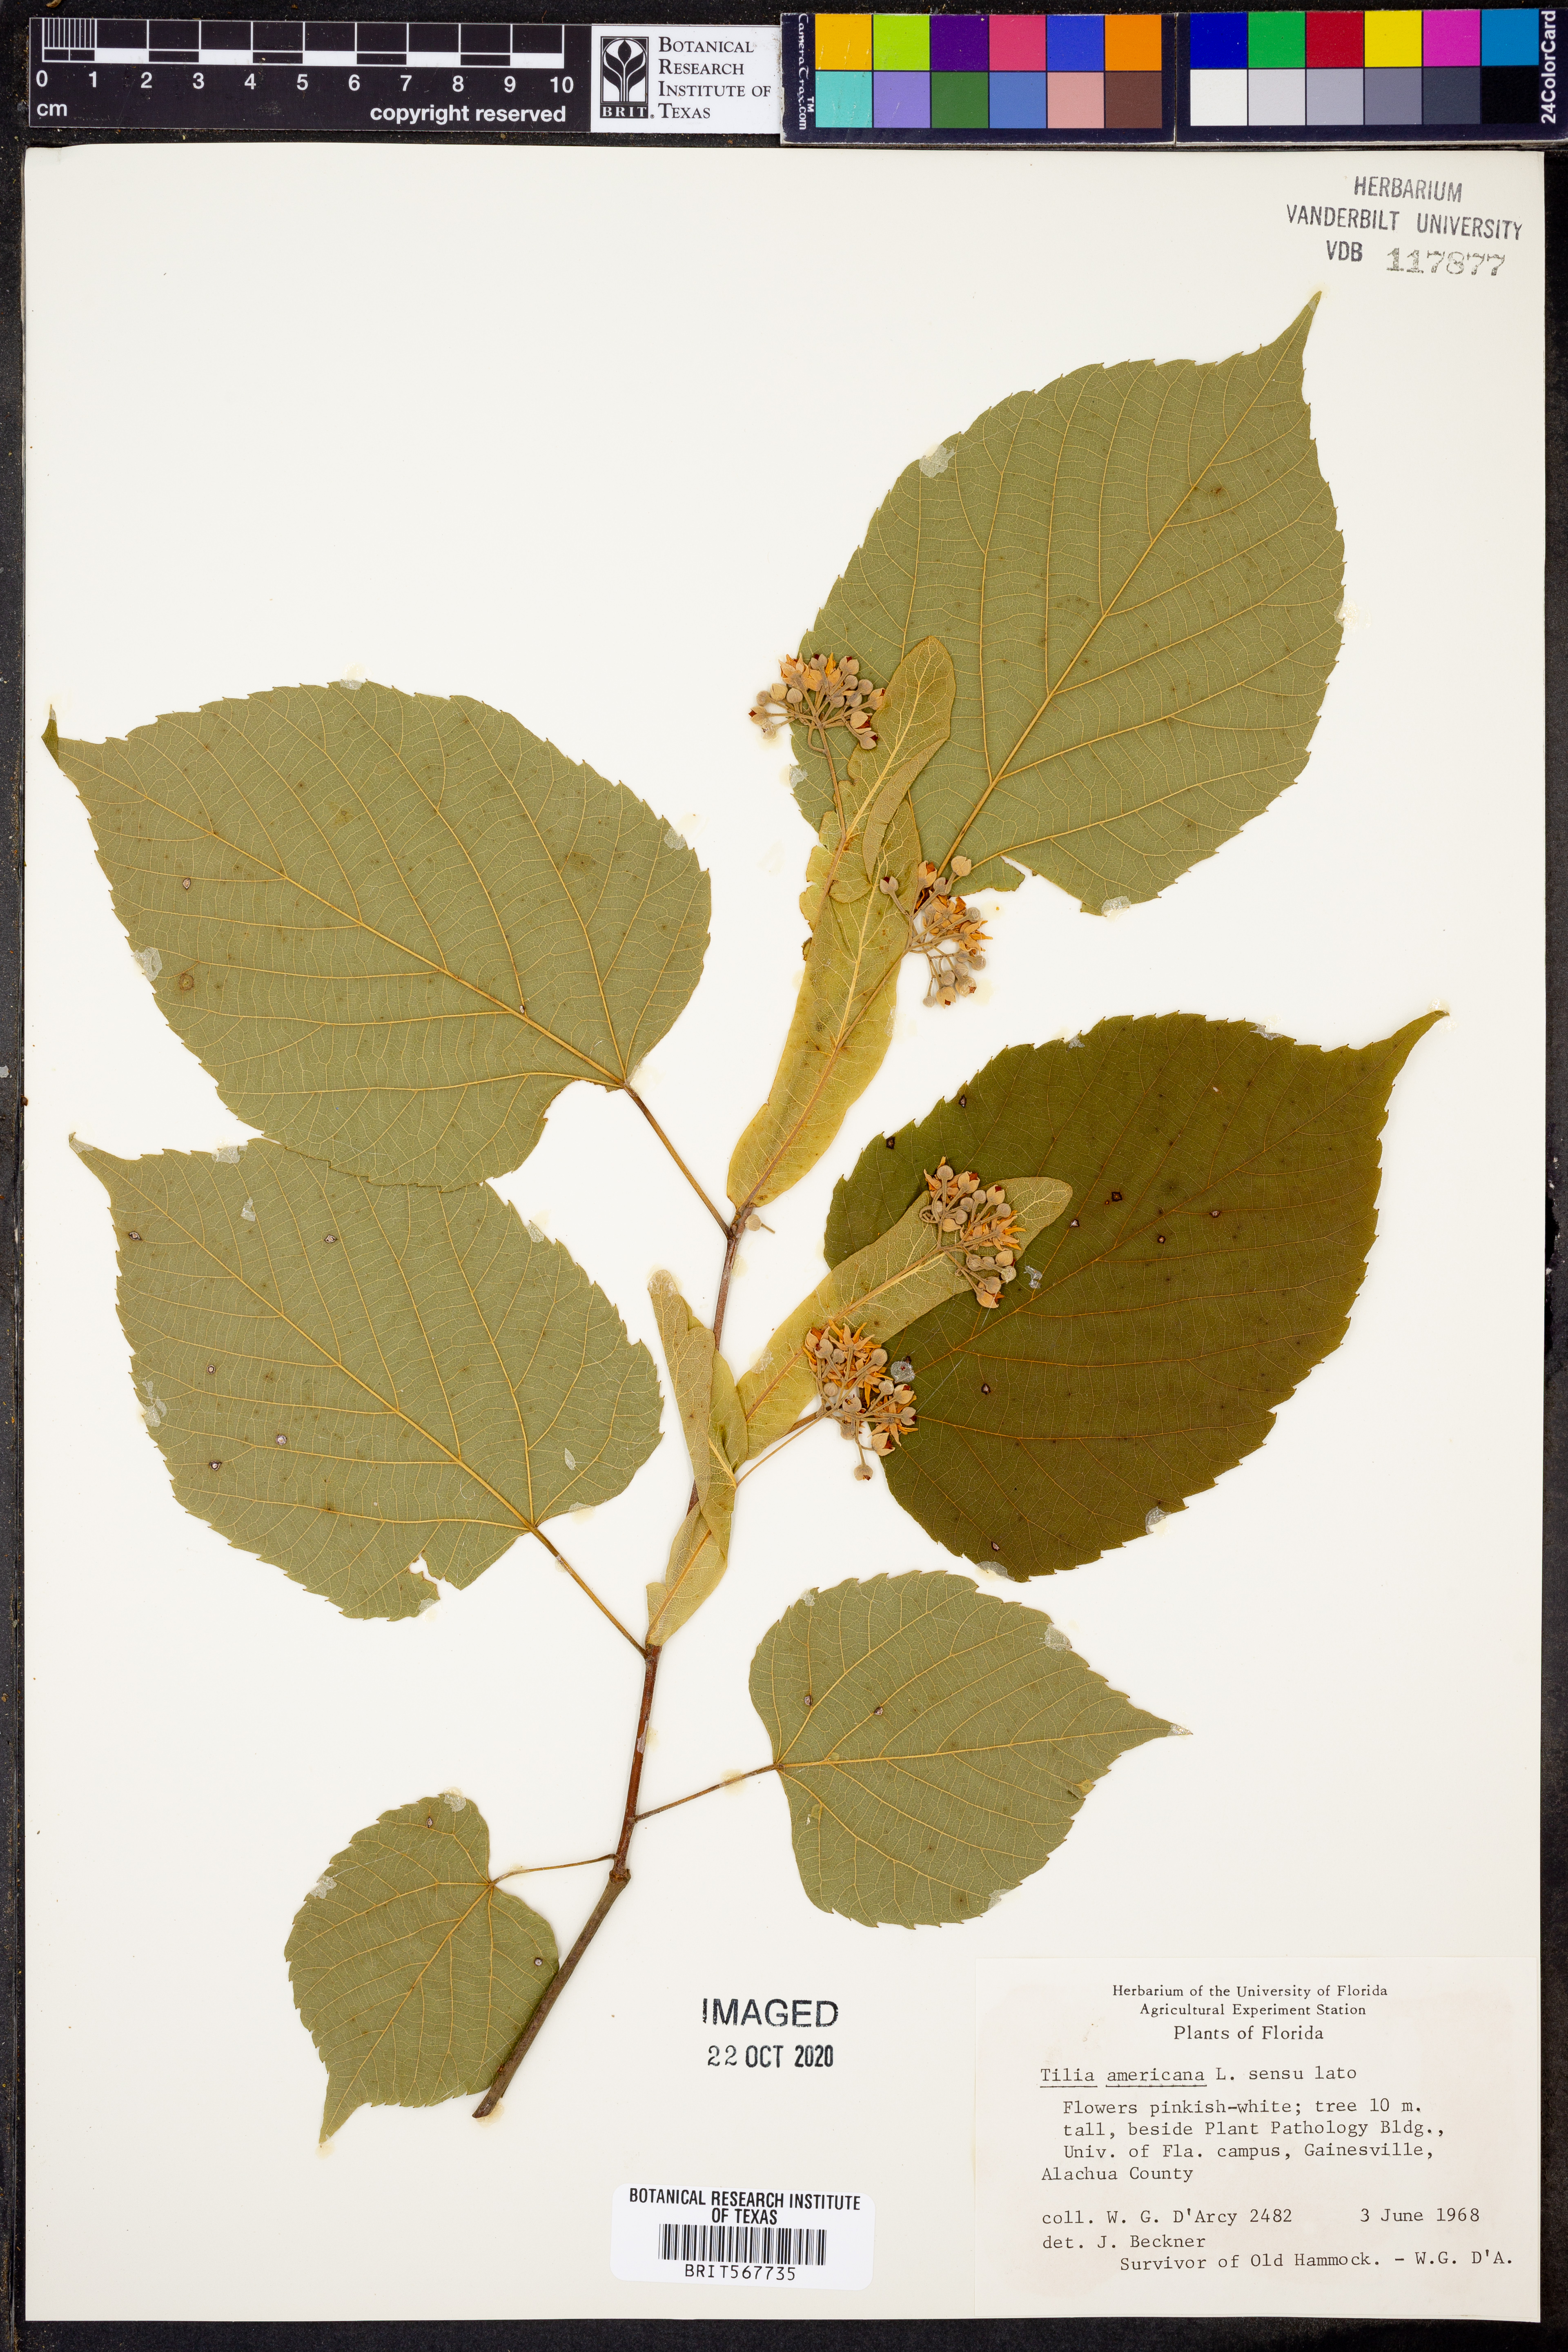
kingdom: Plantae
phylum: Tracheophyta
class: Magnoliopsida
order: Malvales
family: Malvaceae
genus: Tilia
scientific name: Tilia americana
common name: Basswood
